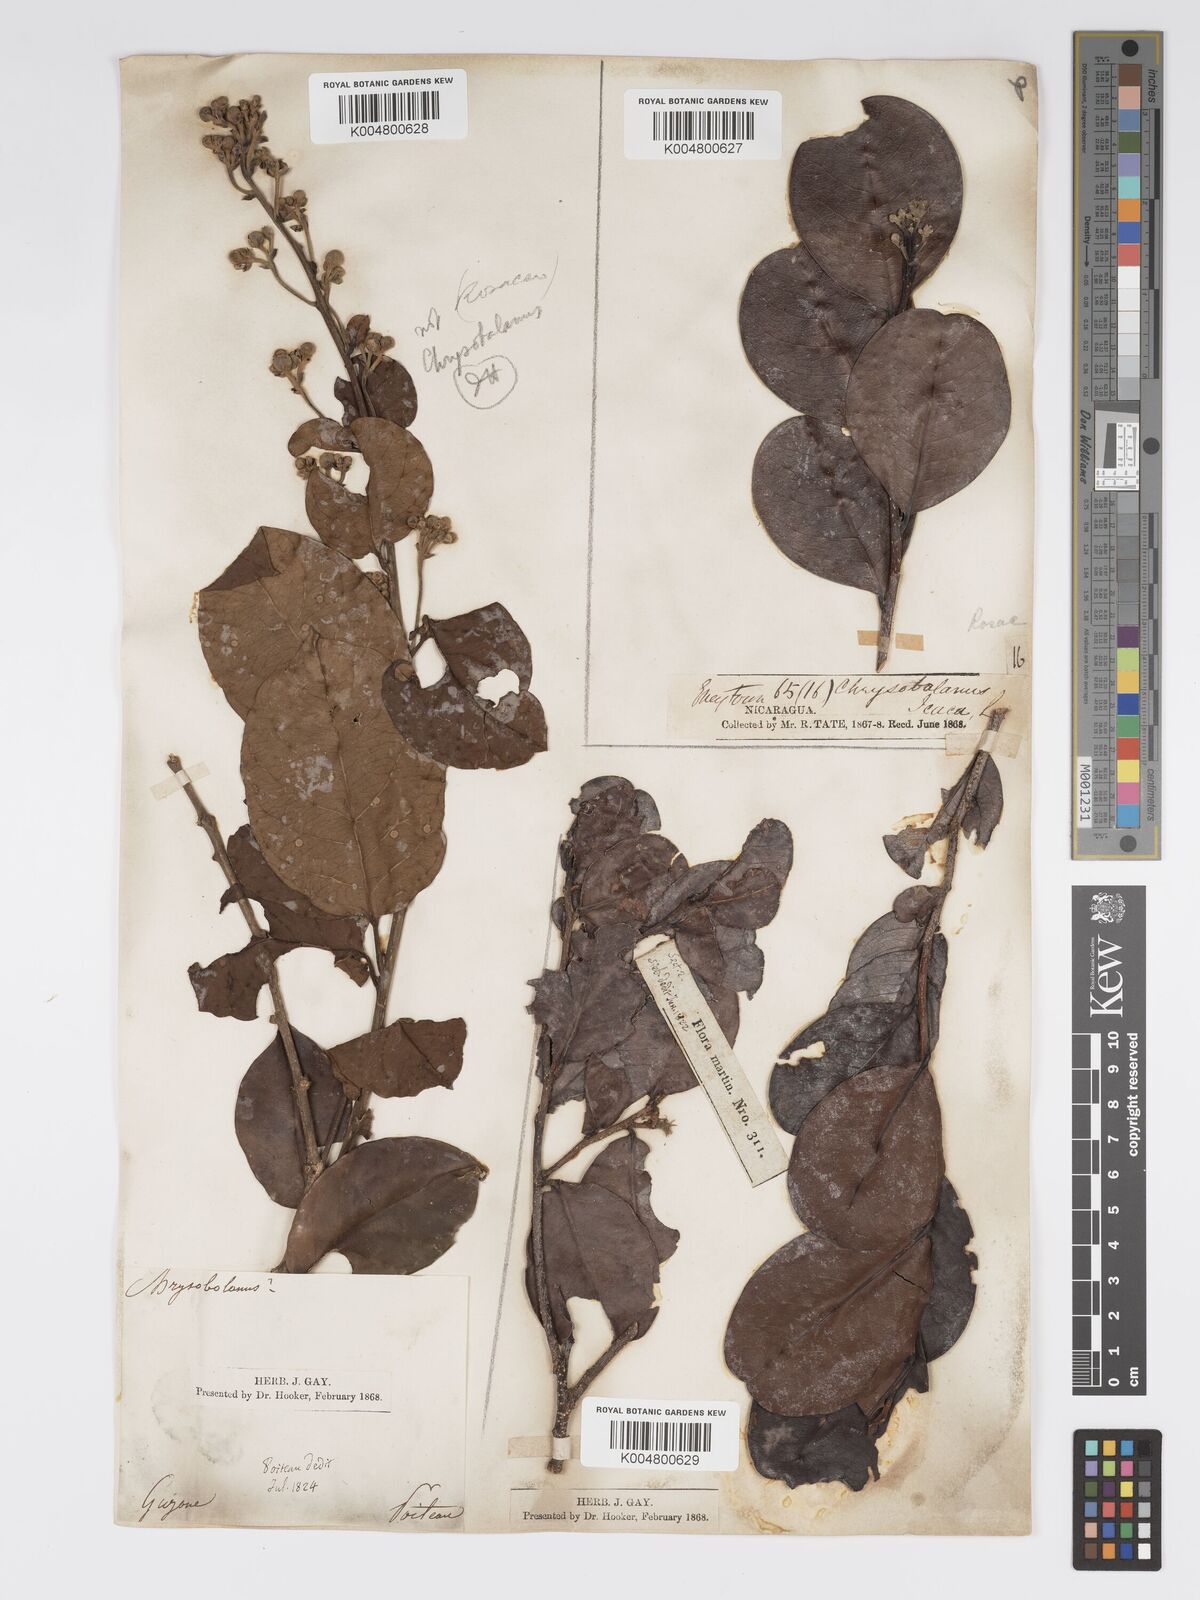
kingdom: Plantae
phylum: Tracheophyta
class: Magnoliopsida
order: Malpighiales
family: Chrysobalanaceae
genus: Chrysobalanus
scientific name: Chrysobalanus icaco
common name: Coco plum
